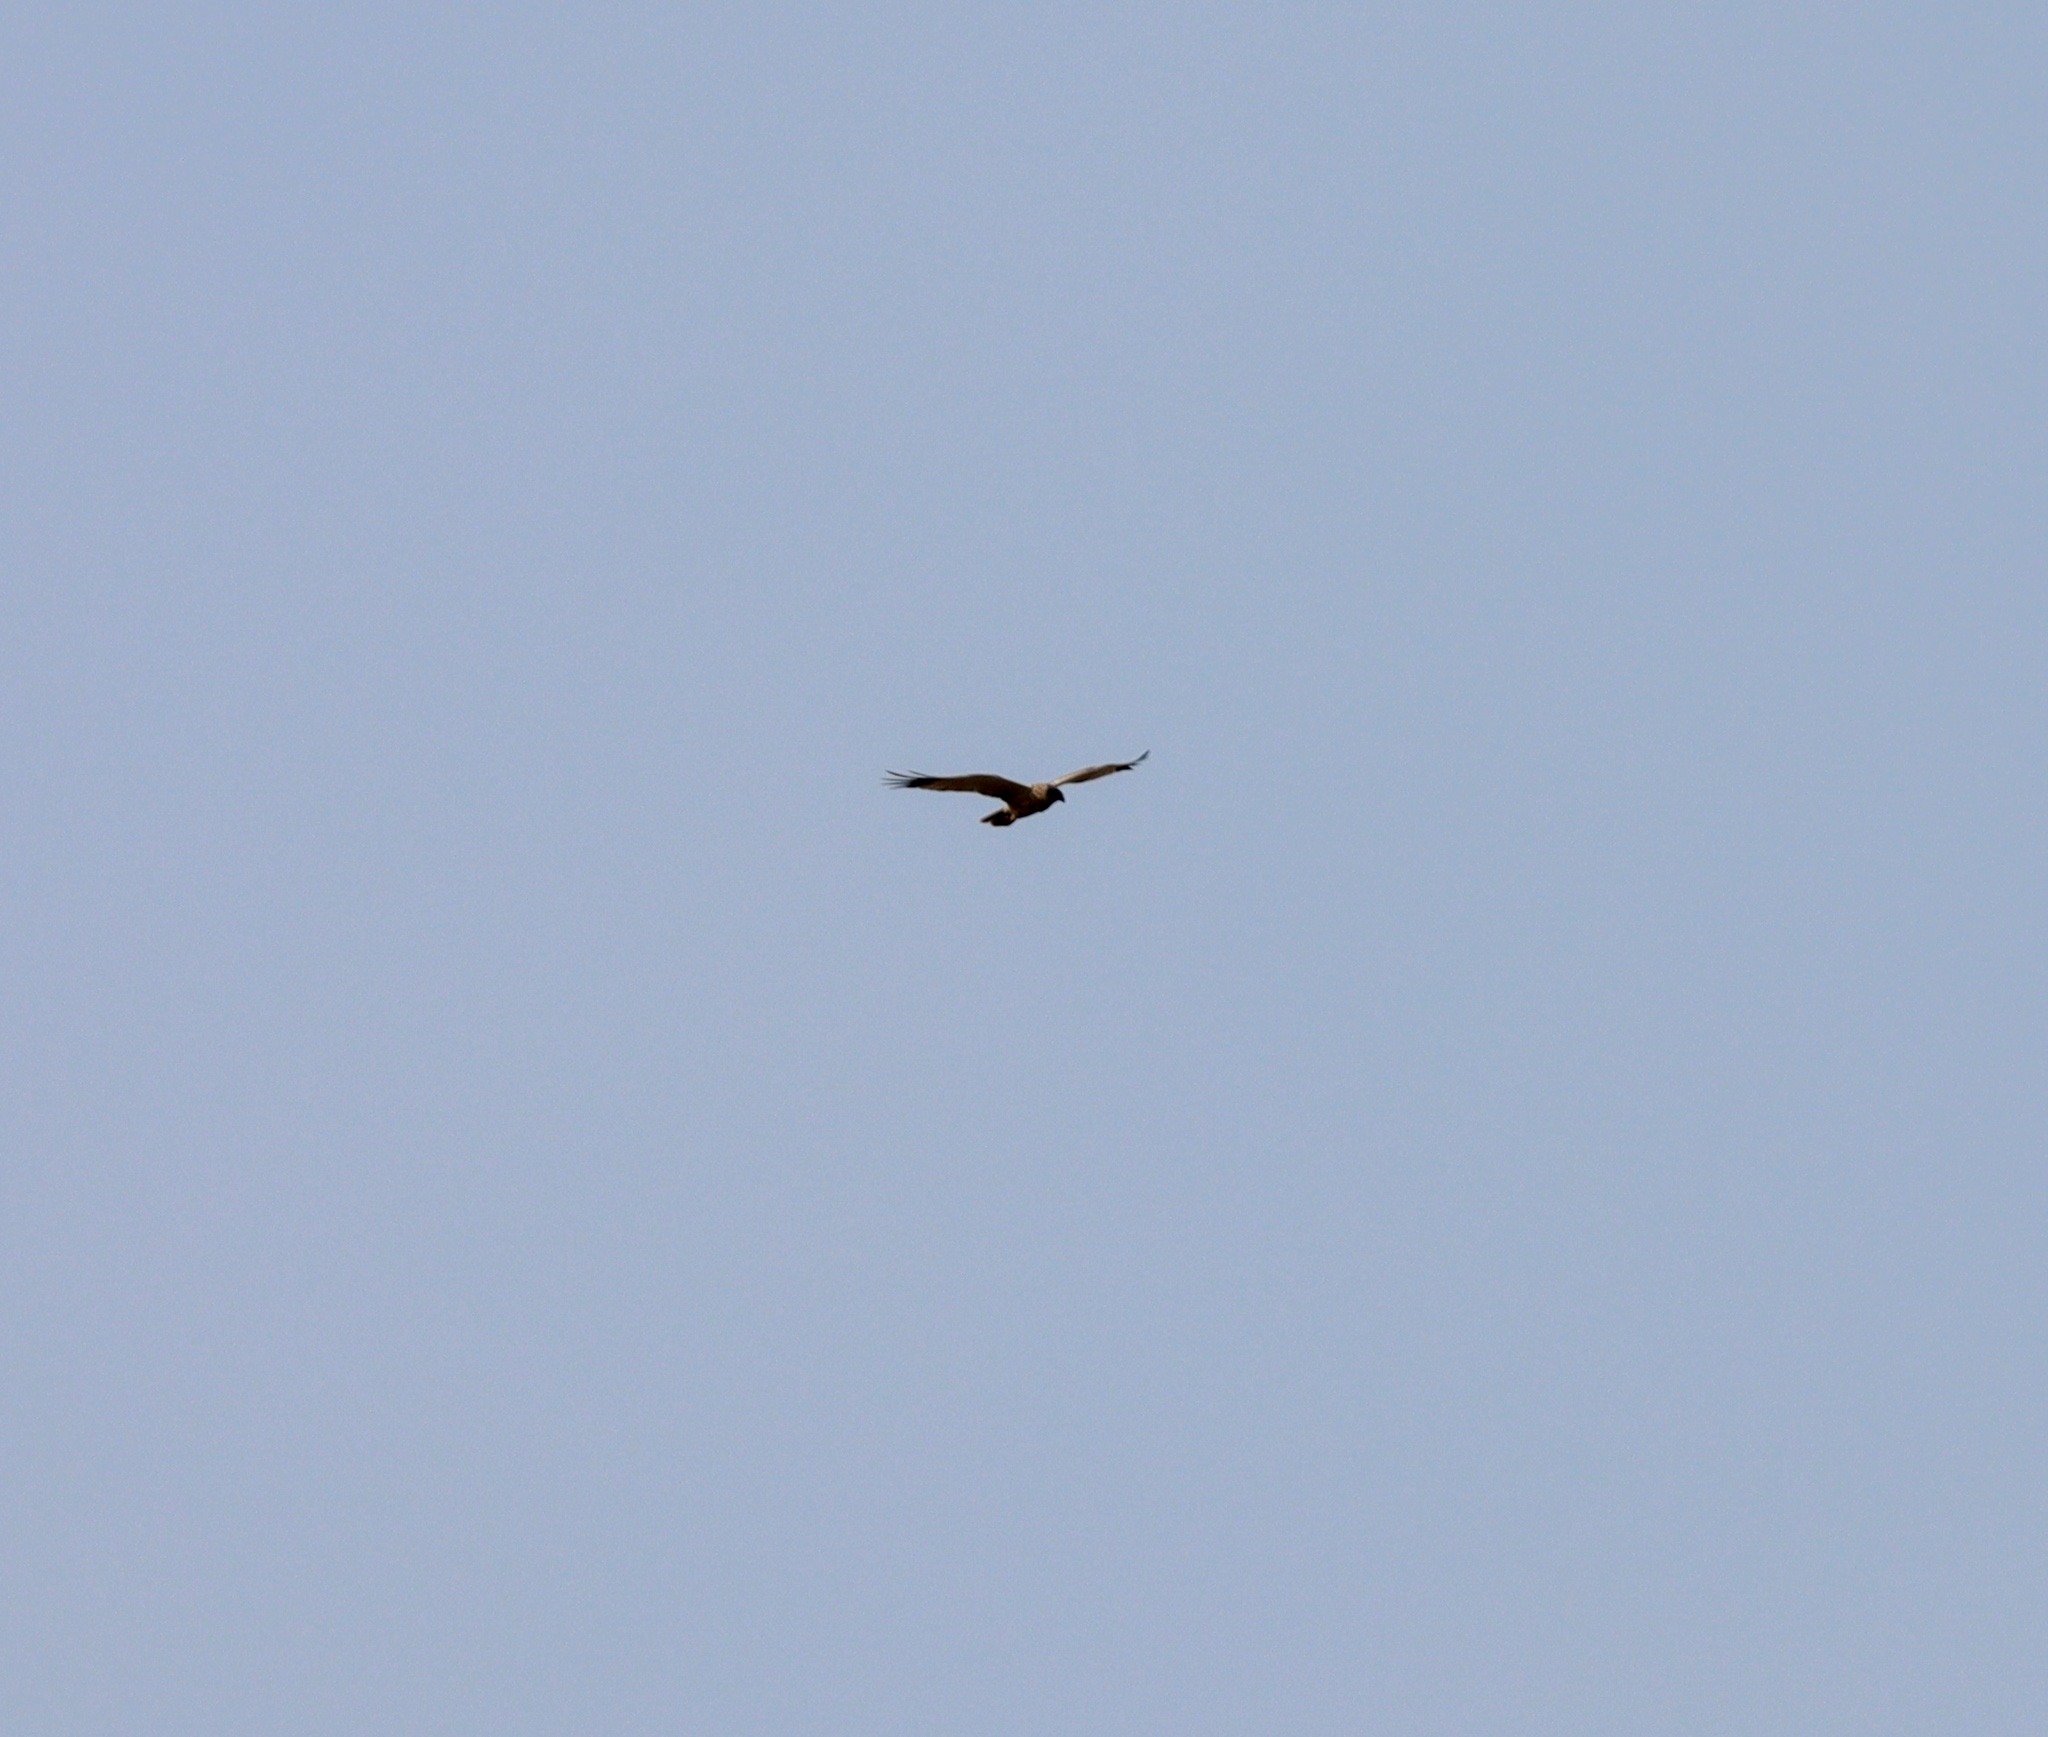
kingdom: Animalia
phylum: Chordata
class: Aves
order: Accipitriformes
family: Accipitridae
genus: Circus
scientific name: Circus aeruginosus
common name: Rørhøg
